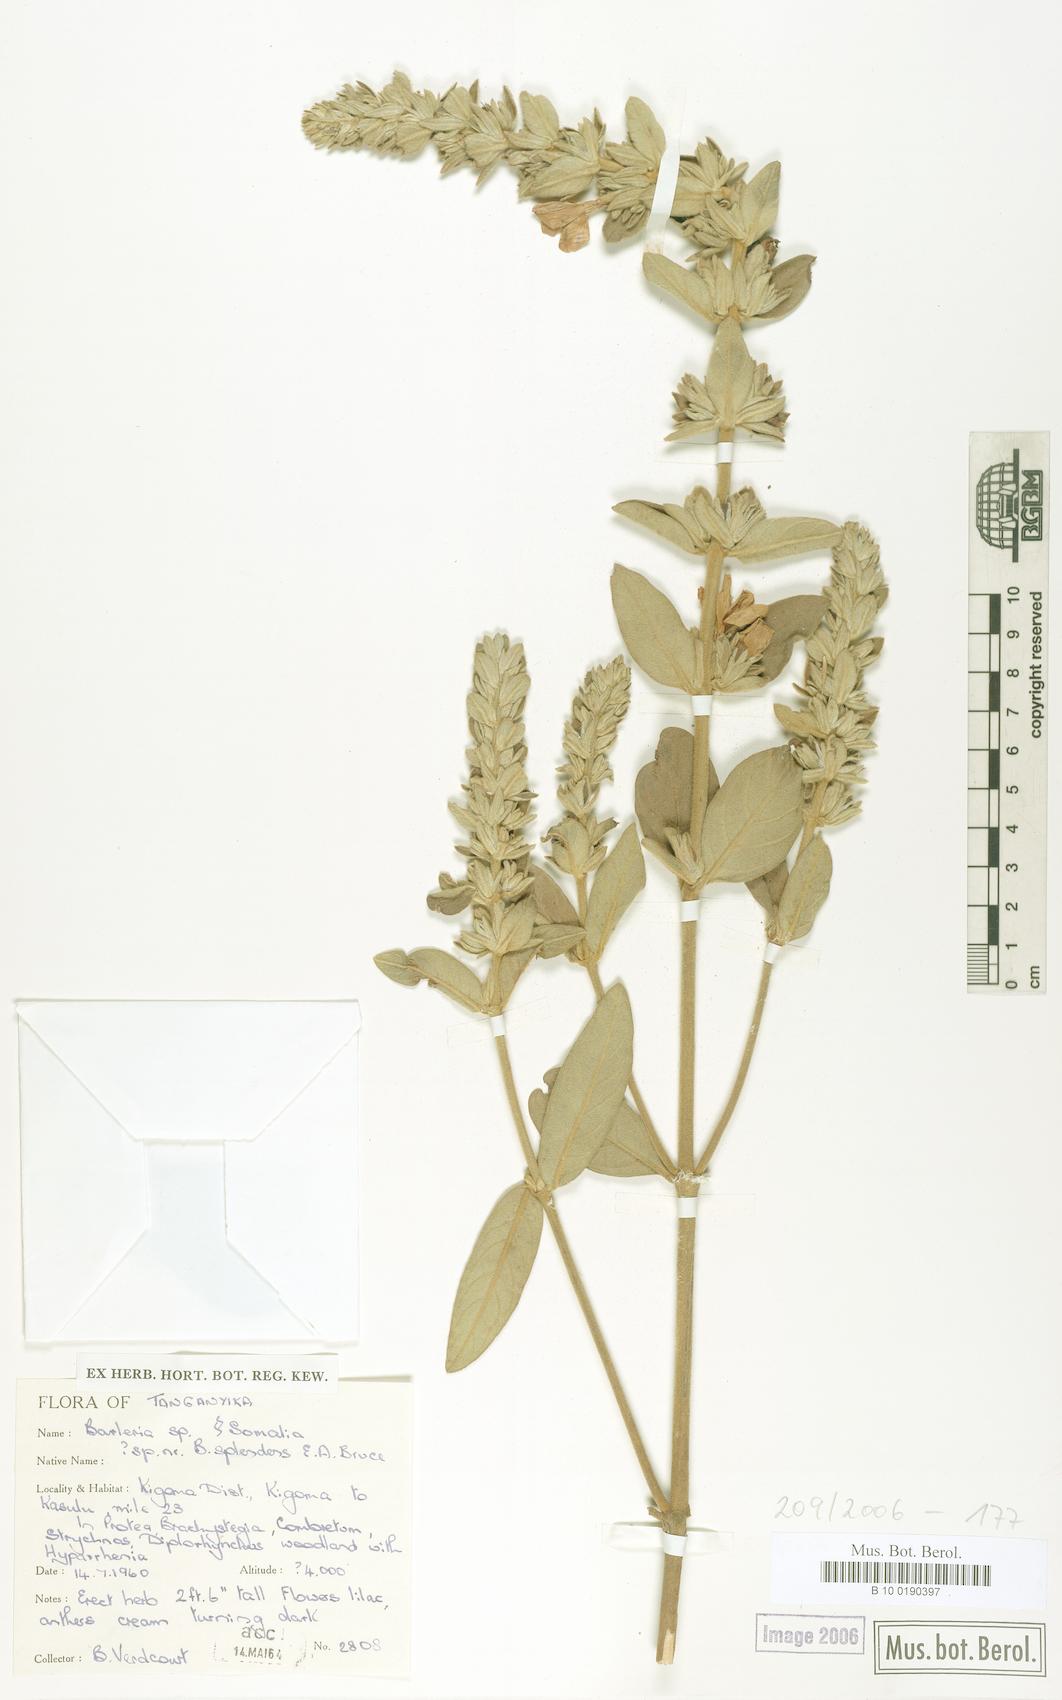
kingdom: Plantae
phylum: Tracheophyta
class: Magnoliopsida
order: Lamiales
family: Acanthaceae
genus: Barleria
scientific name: Barleria
